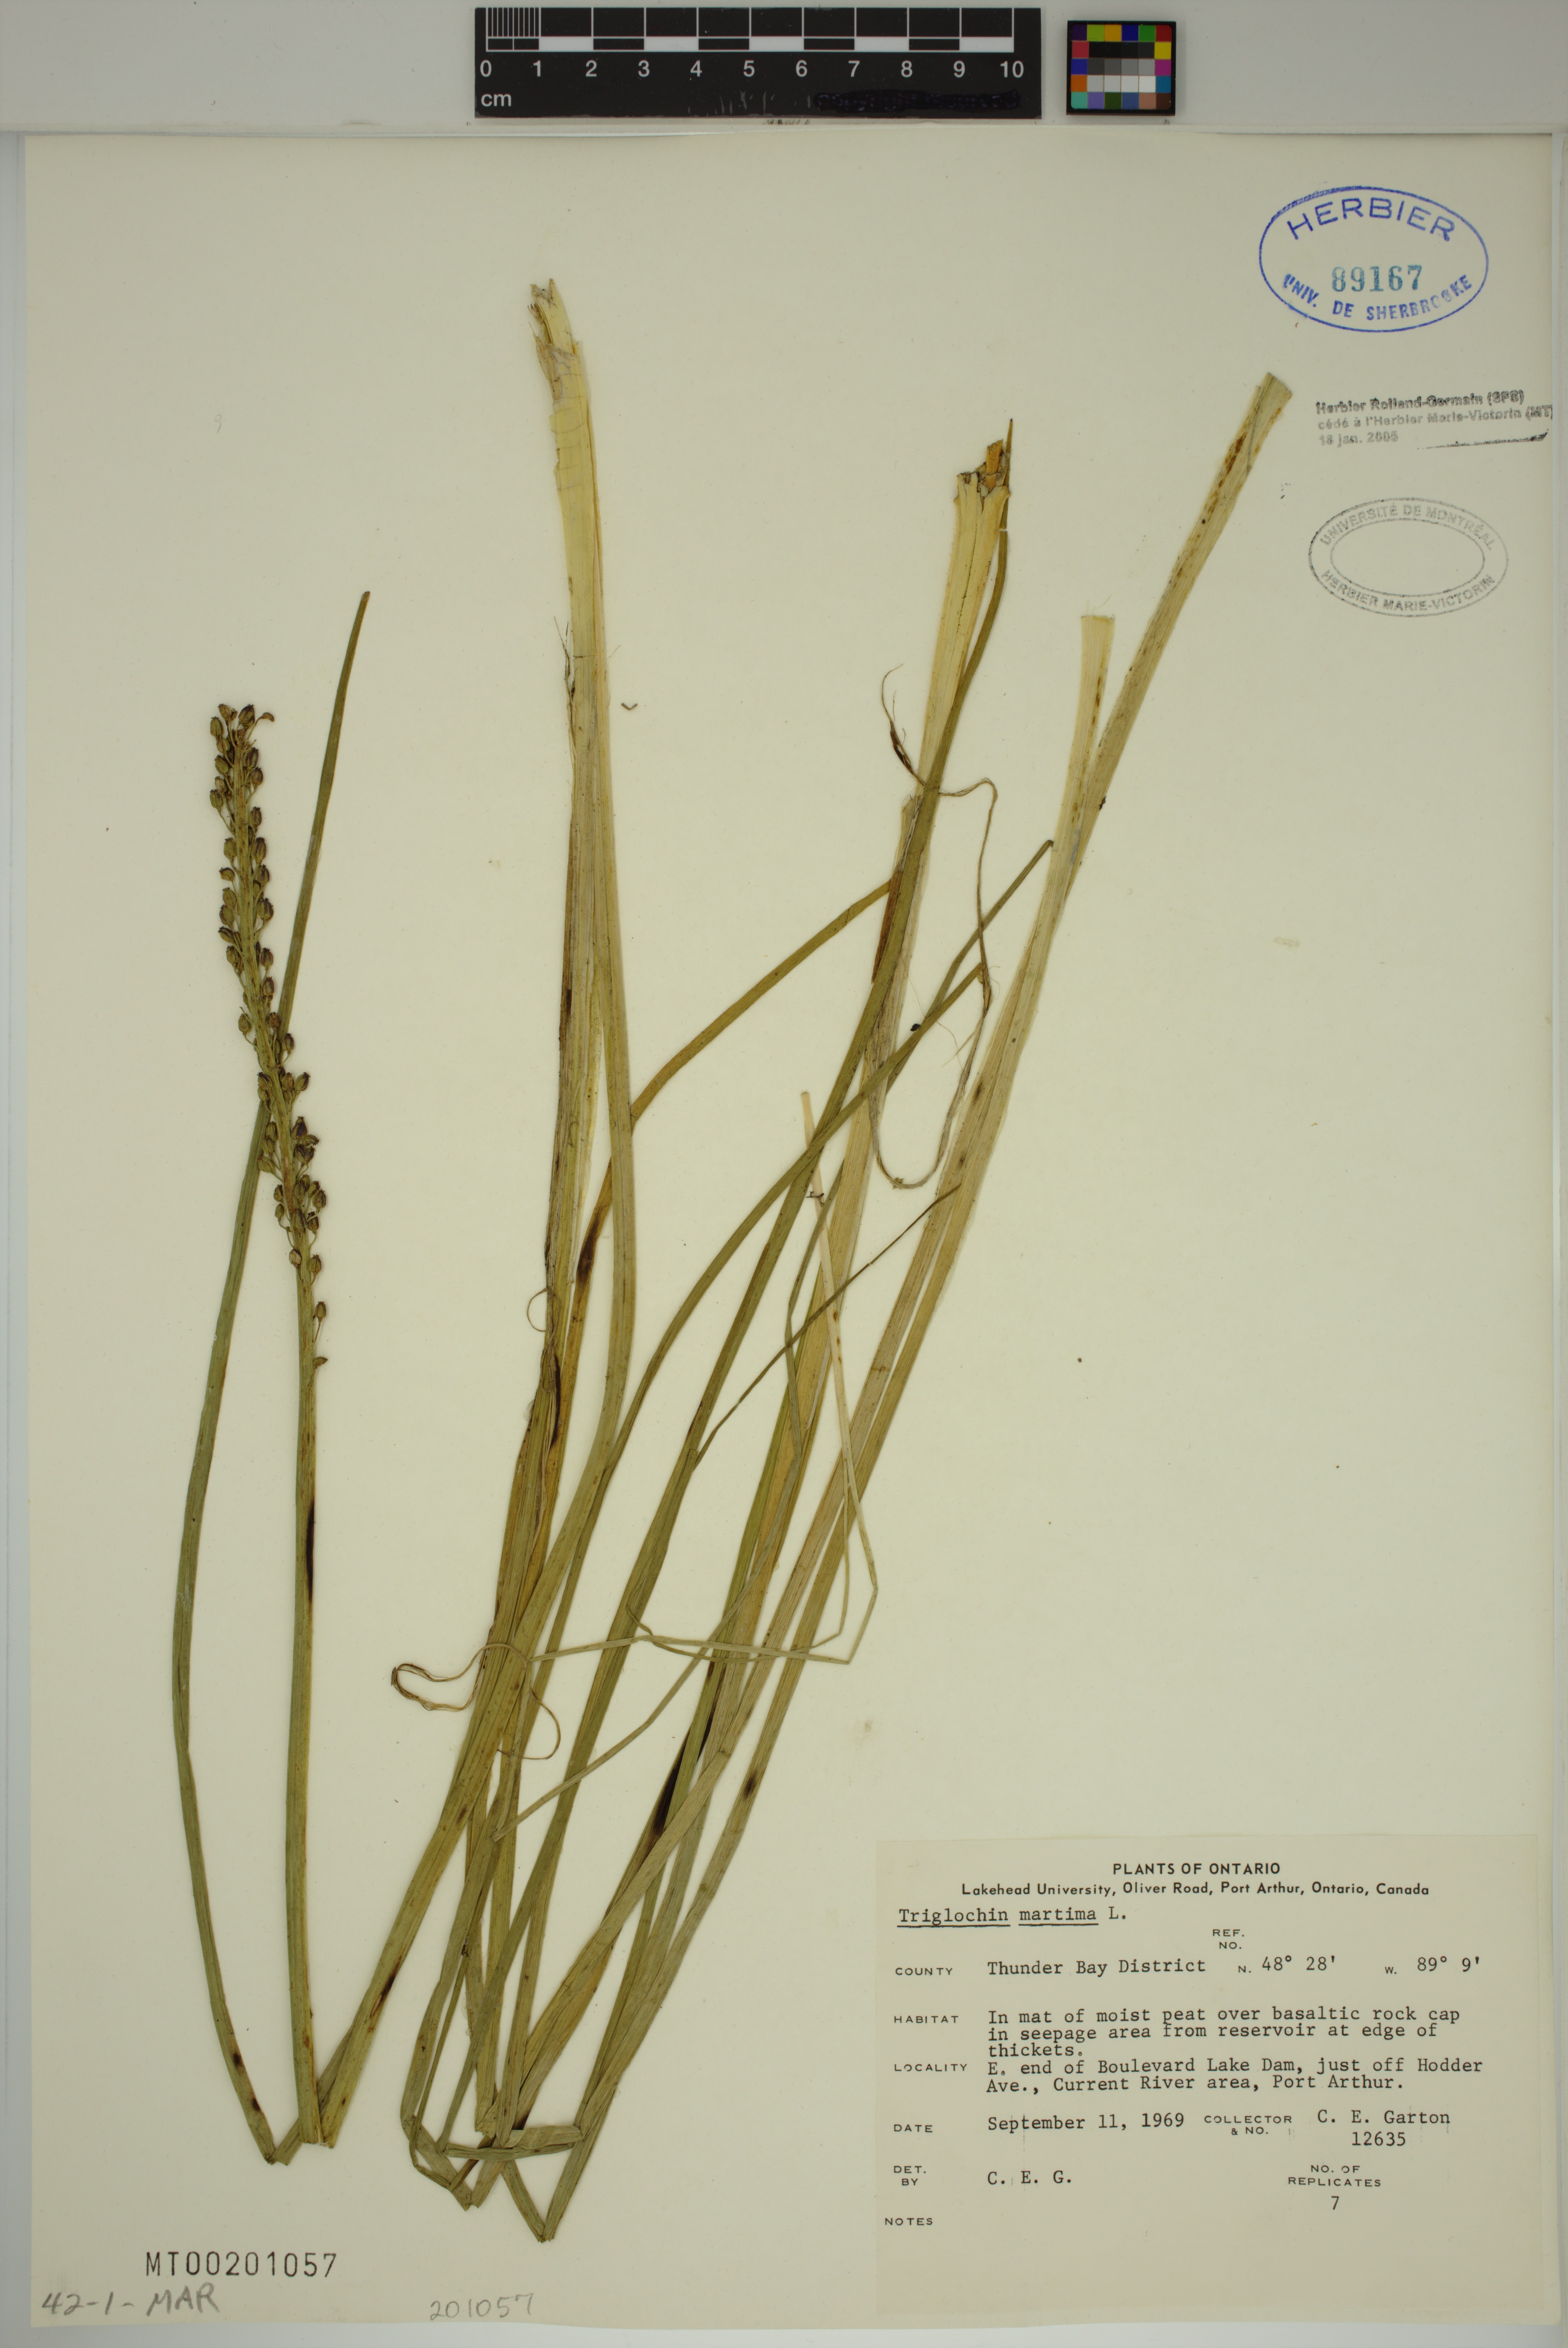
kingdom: Plantae
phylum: Tracheophyta
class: Liliopsida
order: Alismatales
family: Juncaginaceae
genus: Triglochin
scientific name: Triglochin maritima
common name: Sea arrowgrass
